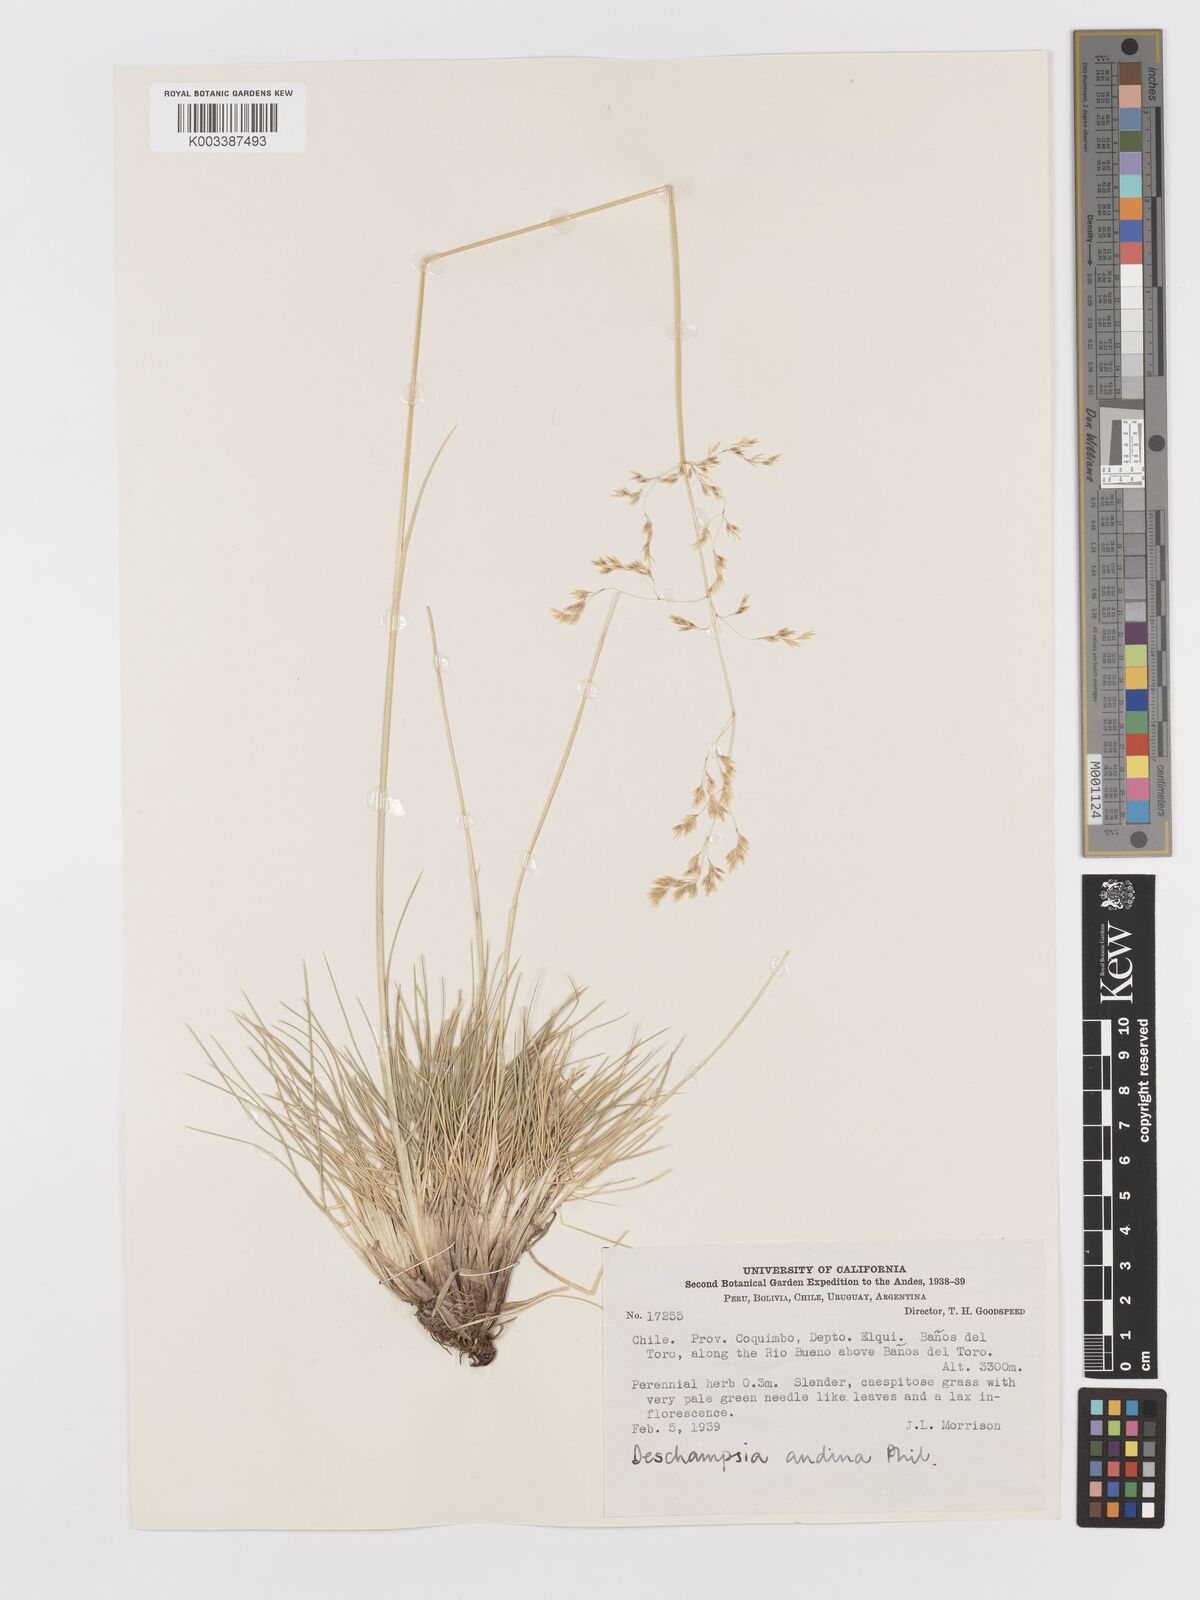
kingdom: Plantae
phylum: Tracheophyta
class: Liliopsida
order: Poales
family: Poaceae
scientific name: Poaceae
